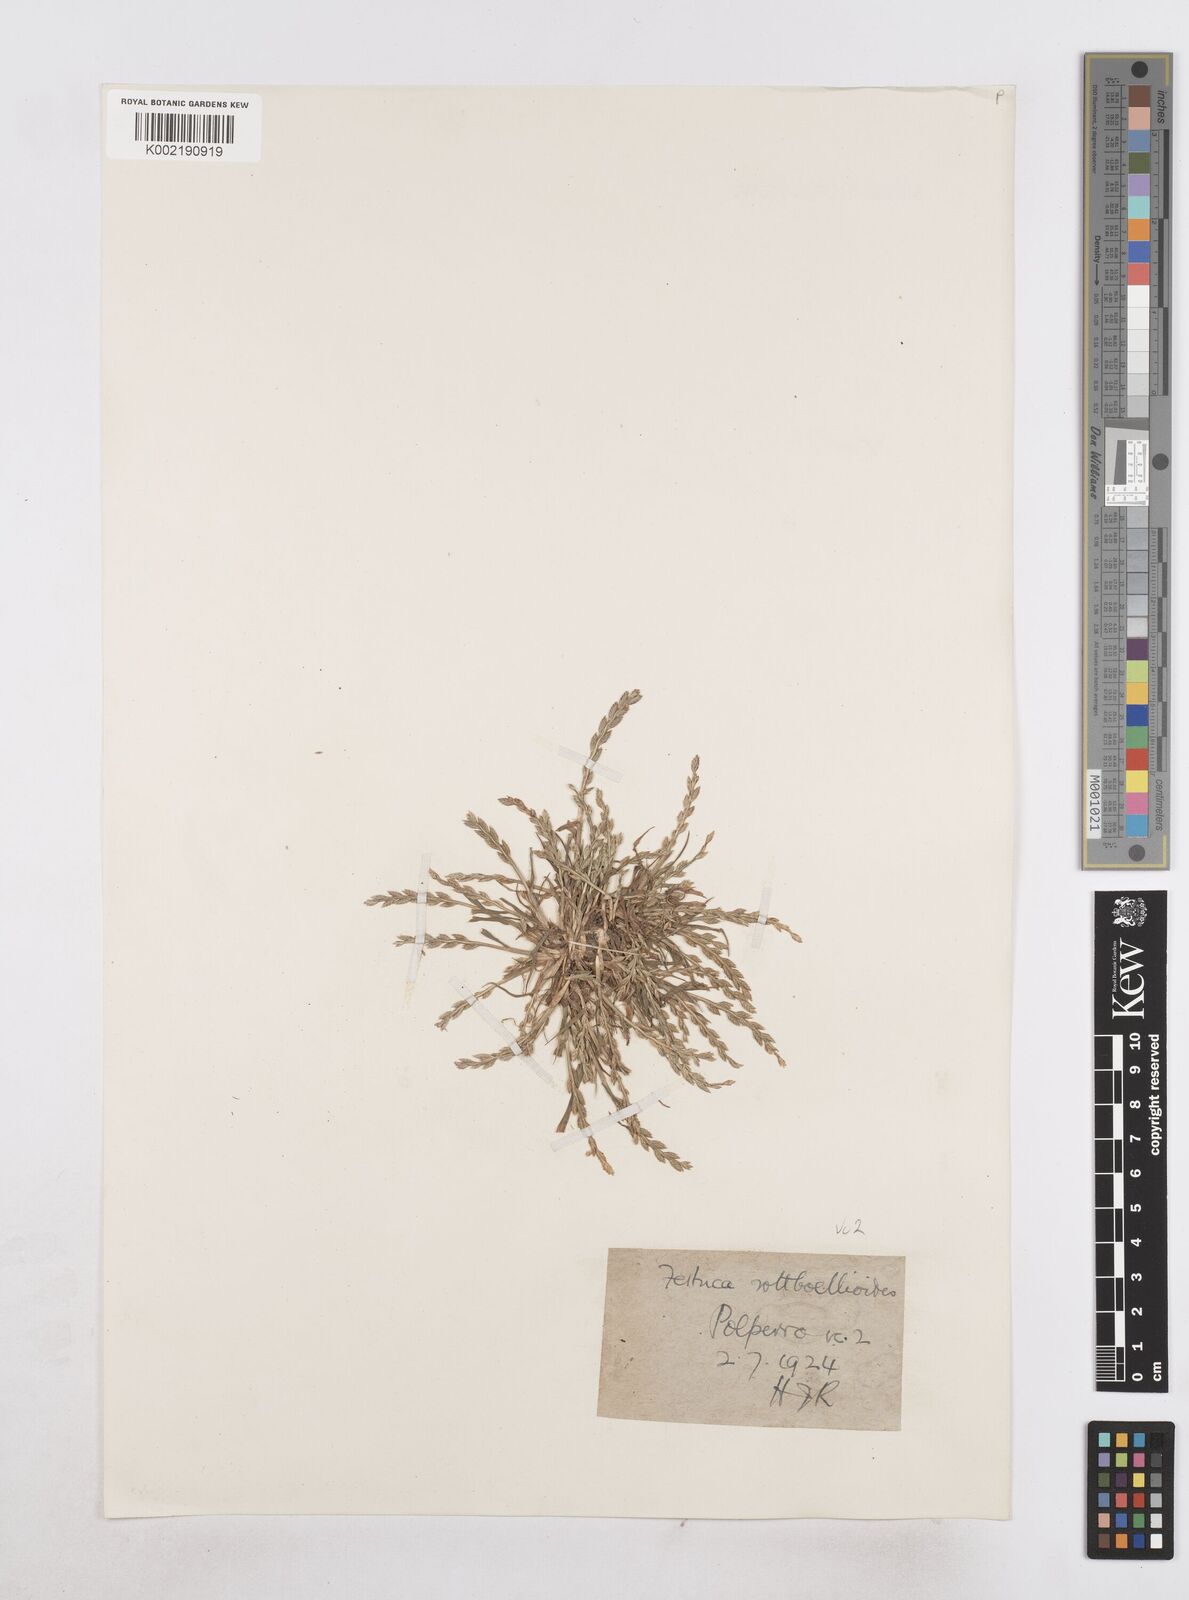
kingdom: Plantae
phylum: Tracheophyta
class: Liliopsida
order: Poales
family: Poaceae
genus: Catapodium
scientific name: Catapodium marinum
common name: Sea fern-grass
